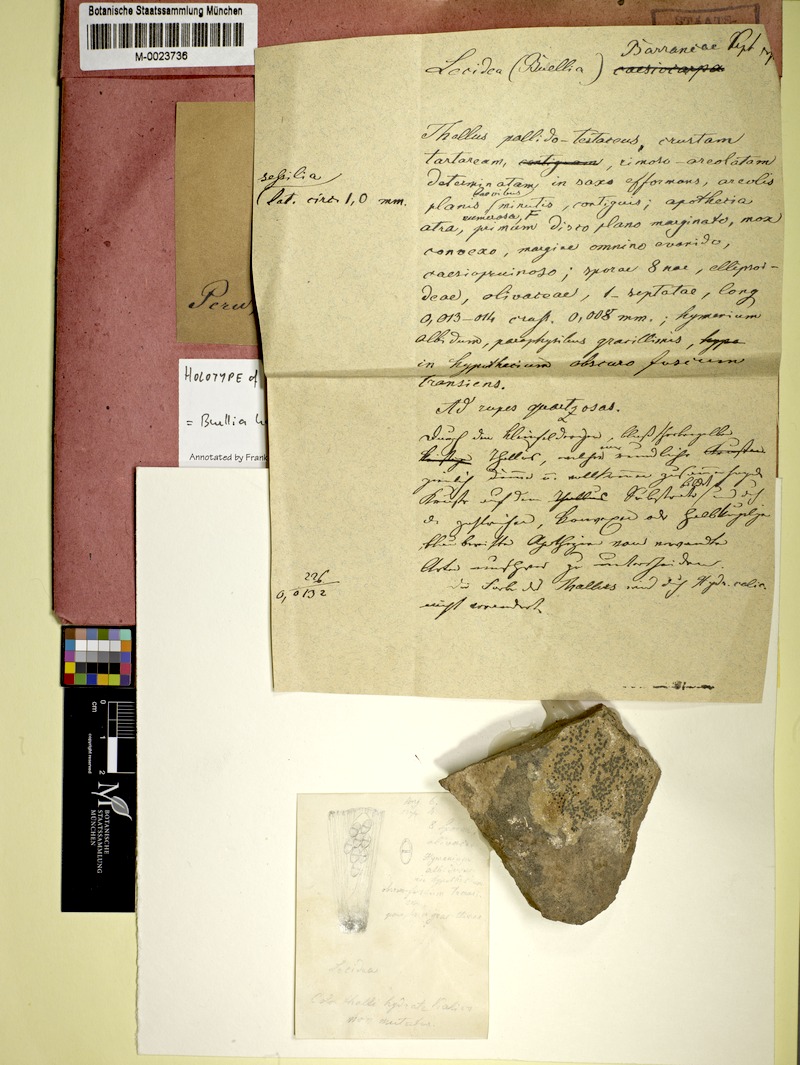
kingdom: Fungi
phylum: Ascomycota
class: Lecanoromycetes
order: Caliciales
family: Caliciaceae
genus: Buellia
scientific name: Buellia halonia
